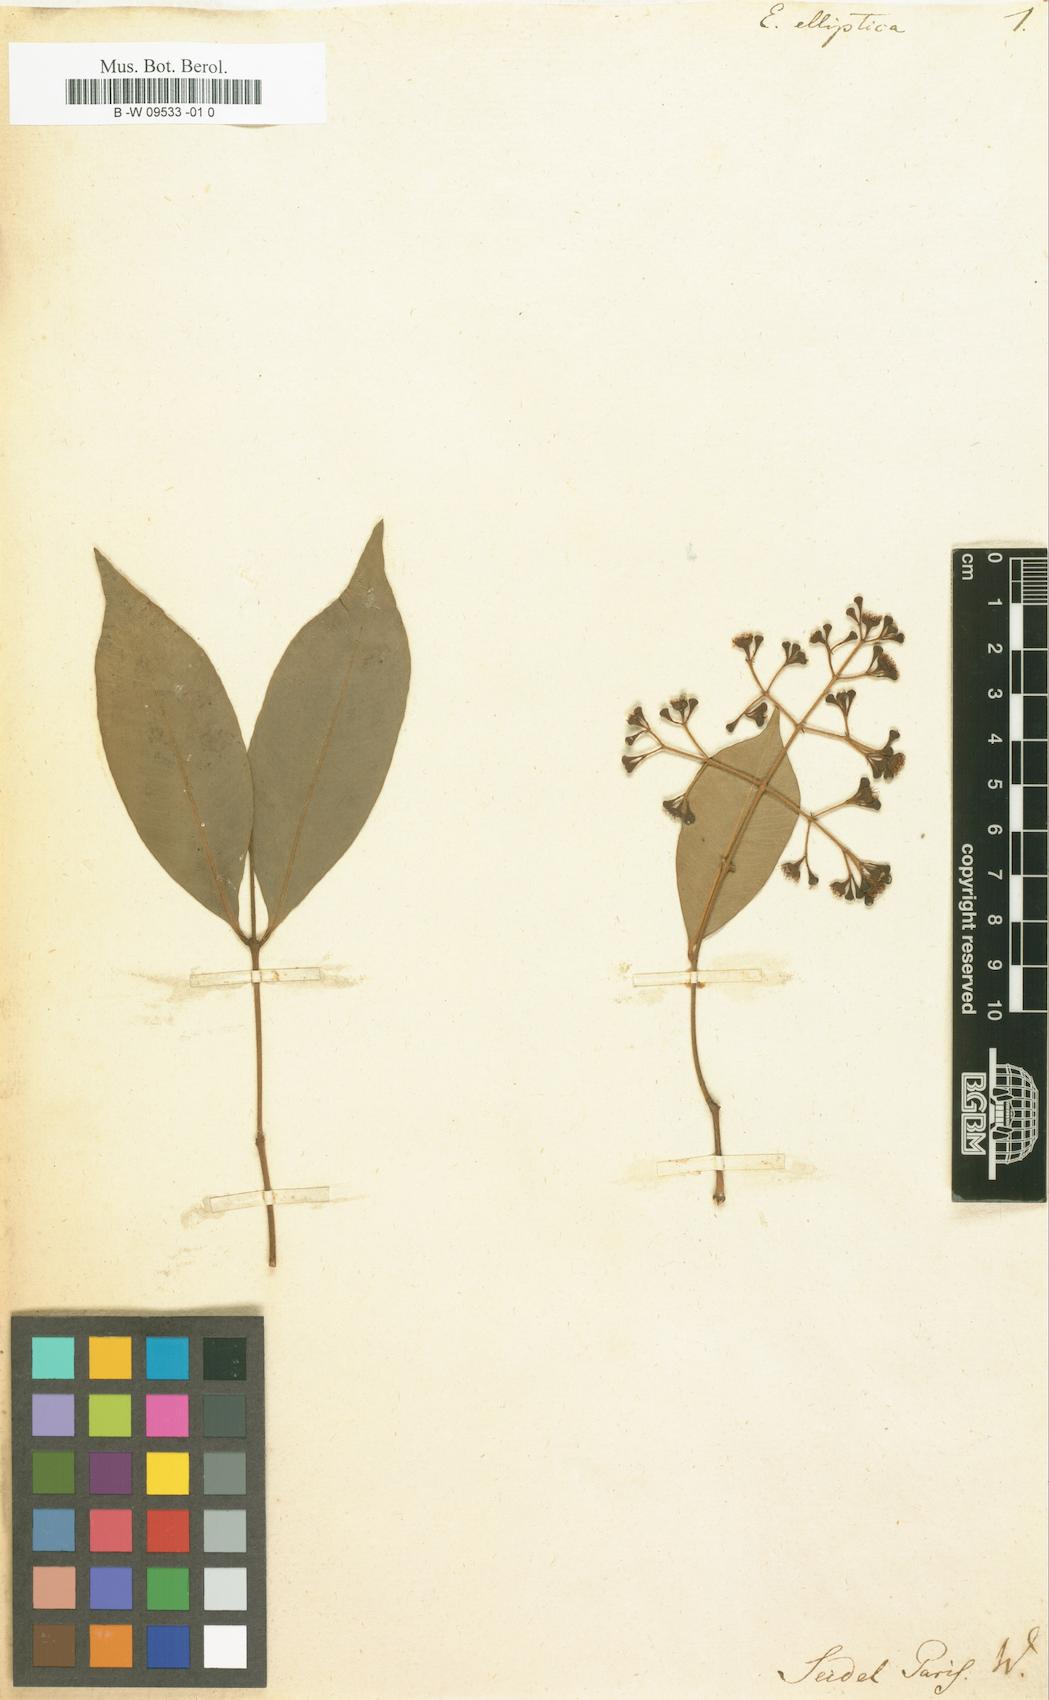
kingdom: Plantae
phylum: Tracheophyta
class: Magnoliopsida
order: Myrtales
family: Myrtaceae
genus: Syzygium
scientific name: Syzygium smithii
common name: Lilly-pilly
